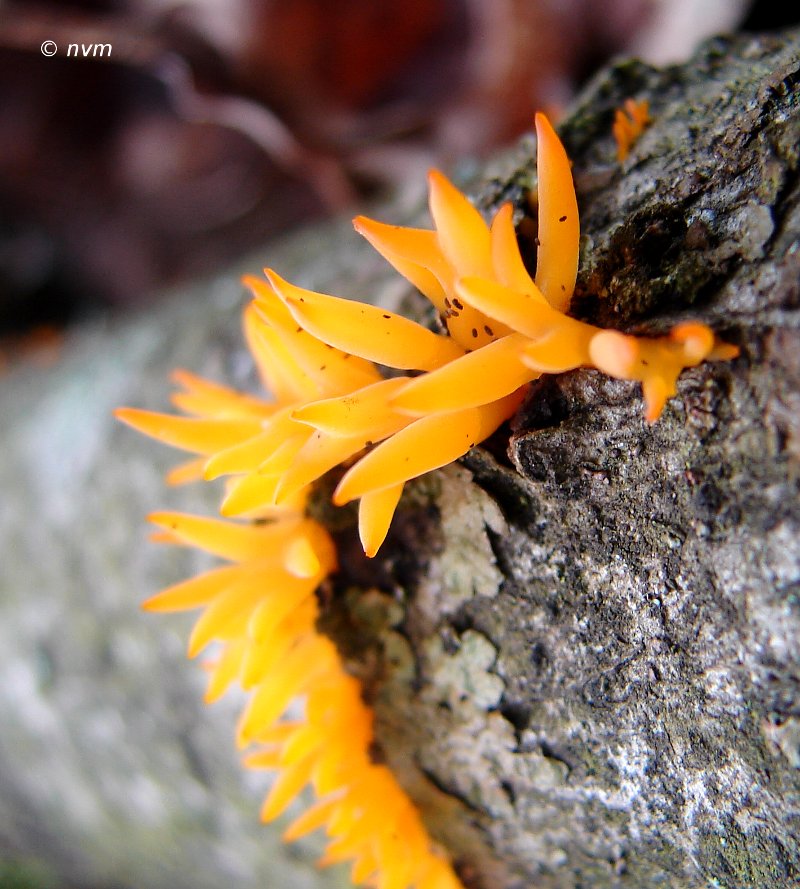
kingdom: Fungi
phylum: Basidiomycota
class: Dacrymycetes
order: Dacrymycetales
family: Dacrymycetaceae
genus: Calocera
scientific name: Calocera cornea
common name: liden guldgaffel
